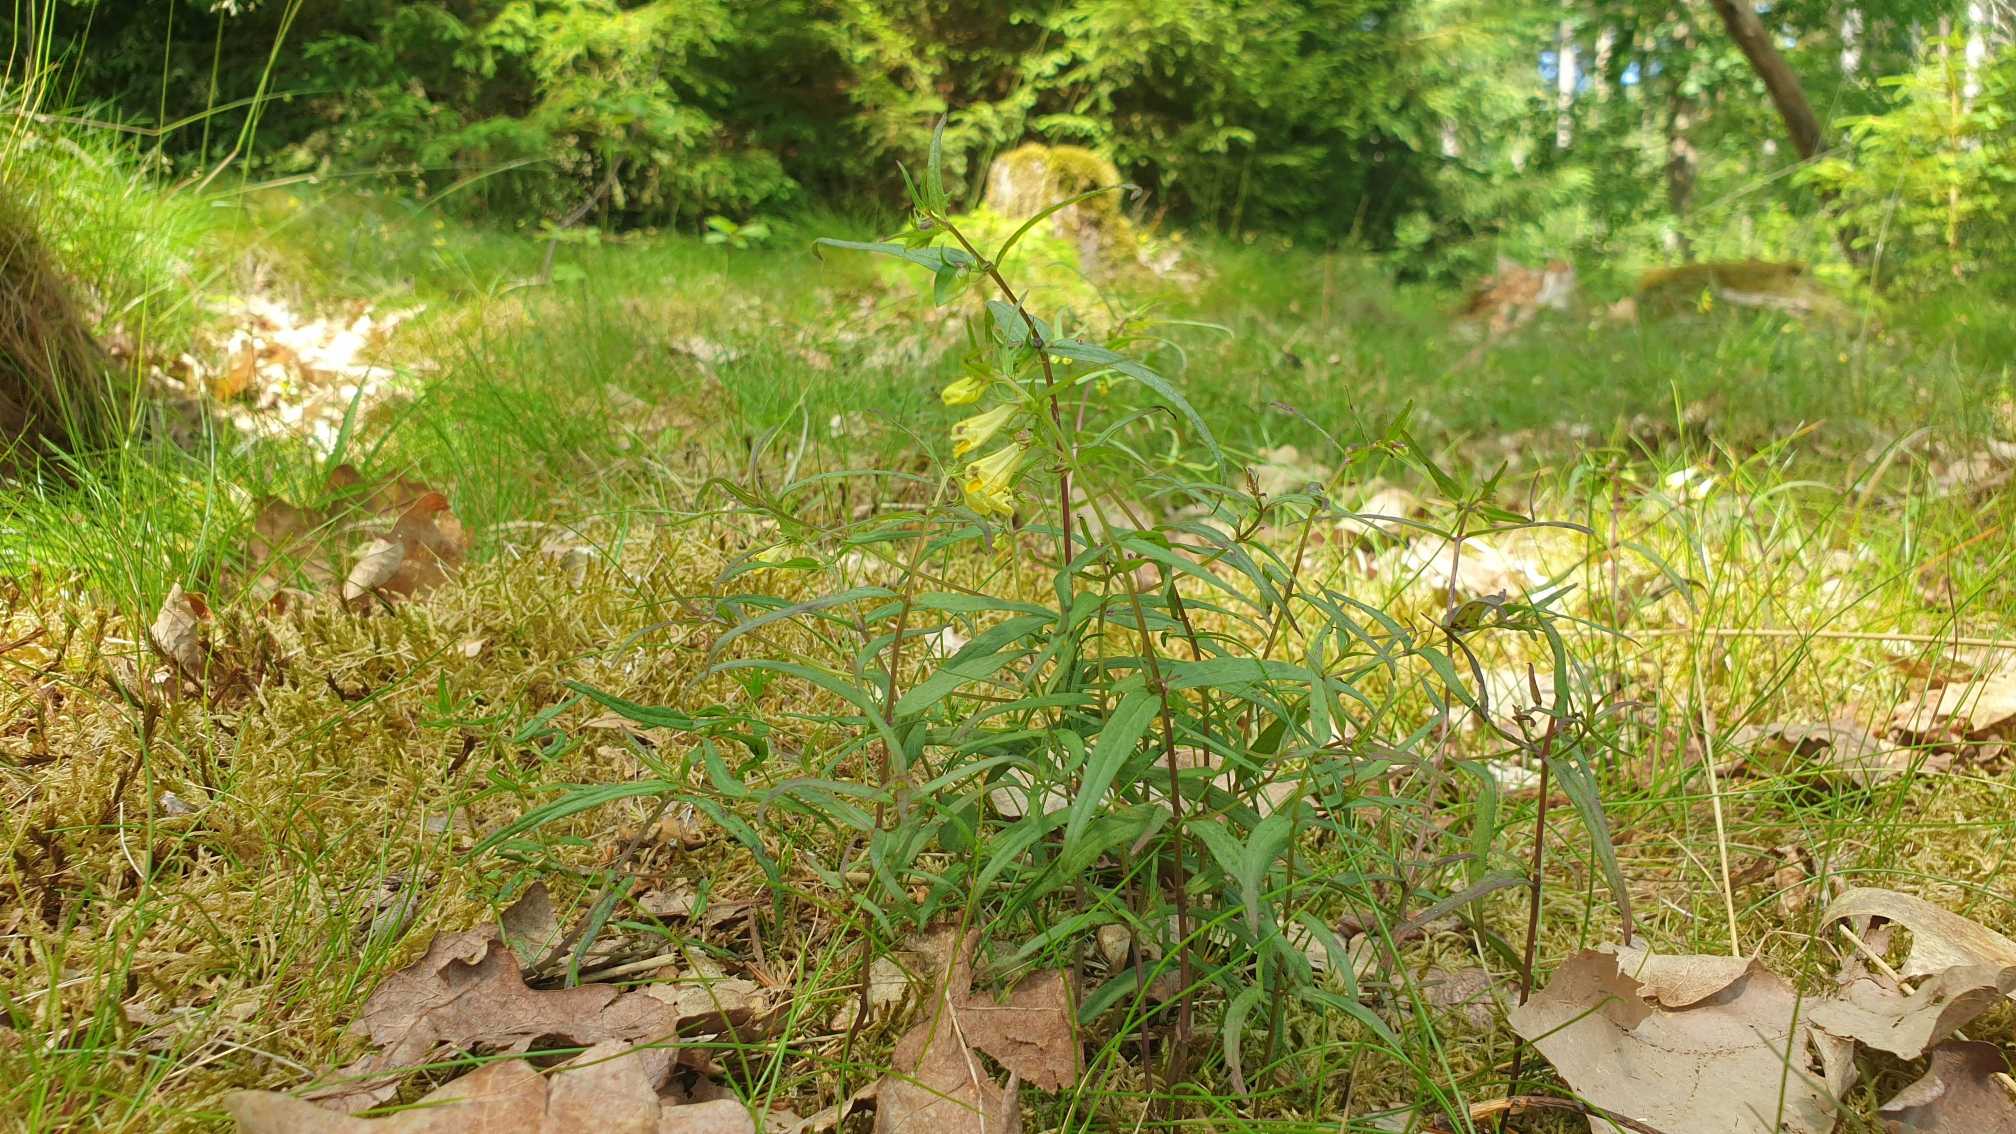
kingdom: Plantae
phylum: Tracheophyta
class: Magnoliopsida
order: Lamiales
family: Orobanchaceae
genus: Melampyrum
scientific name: Melampyrum pratense
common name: Almindelig kohvede
